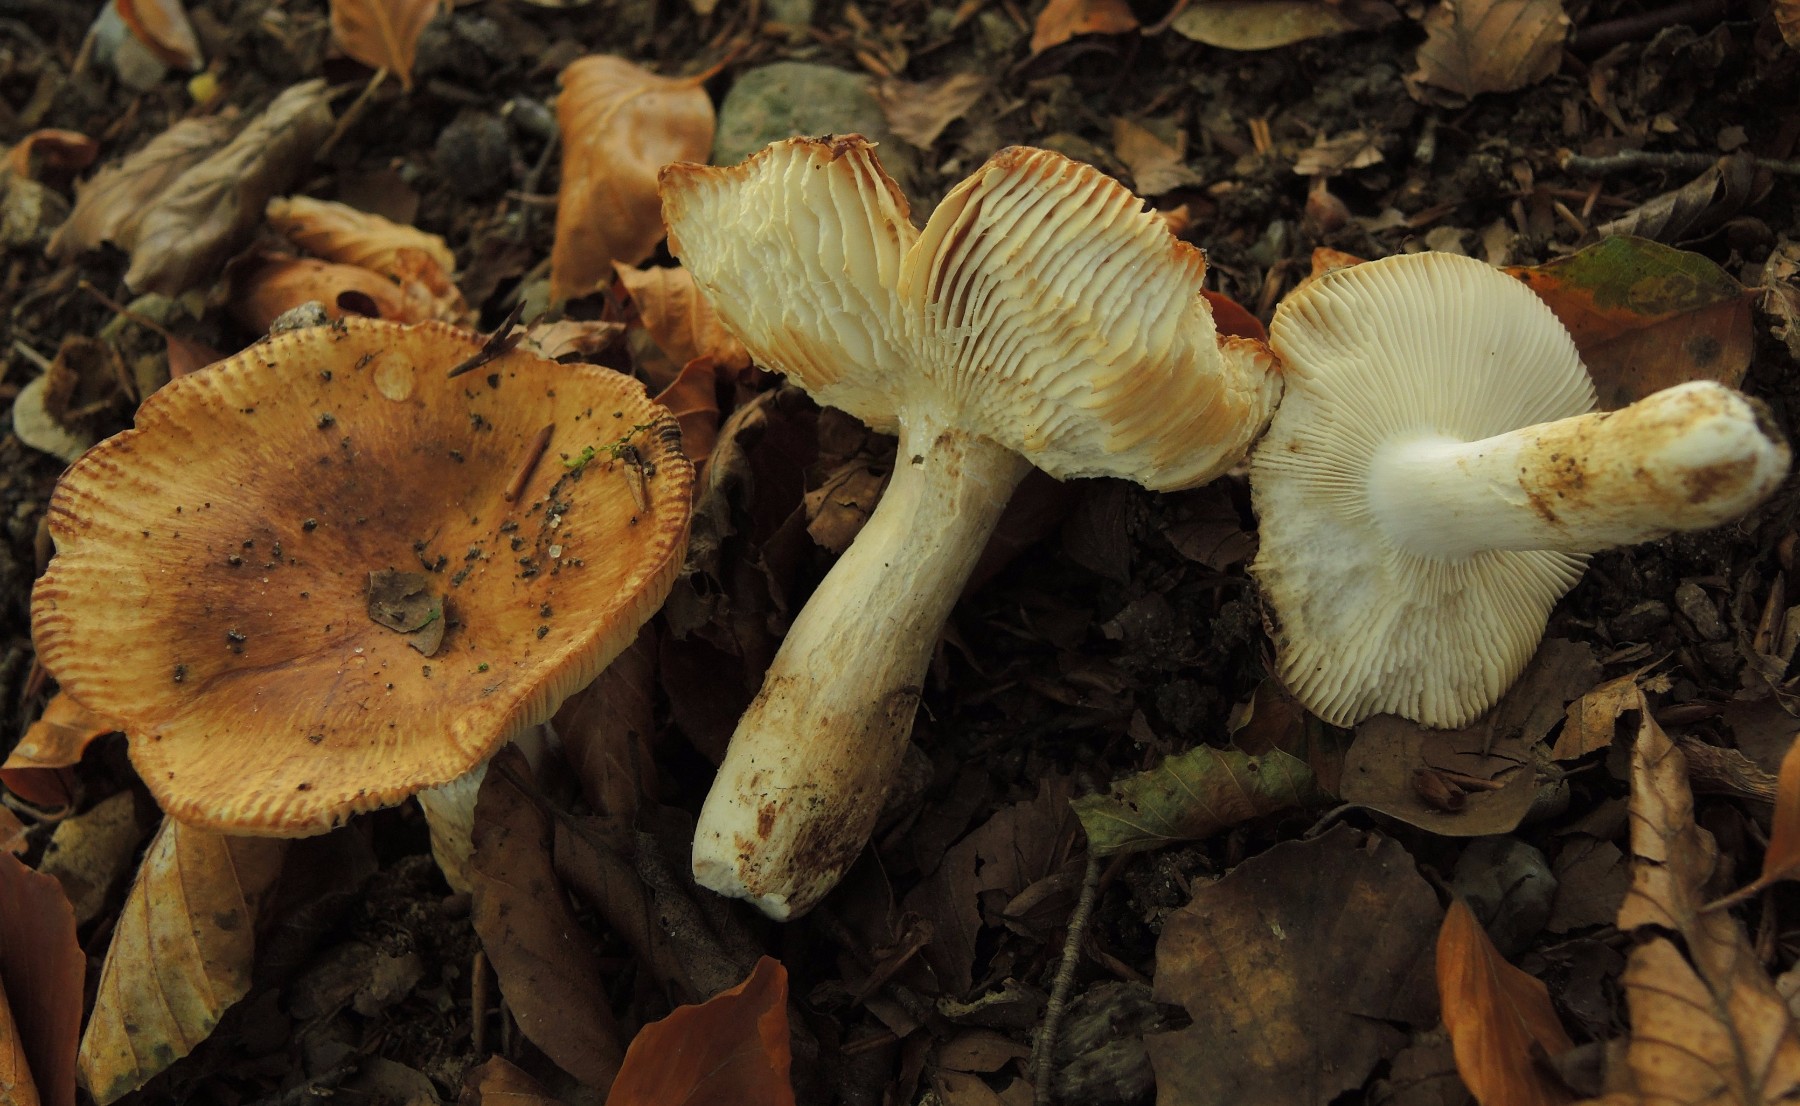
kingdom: Fungi
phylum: Basidiomycota
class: Agaricomycetes
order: Russulales
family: Russulaceae
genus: Russula
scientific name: Russula grata
